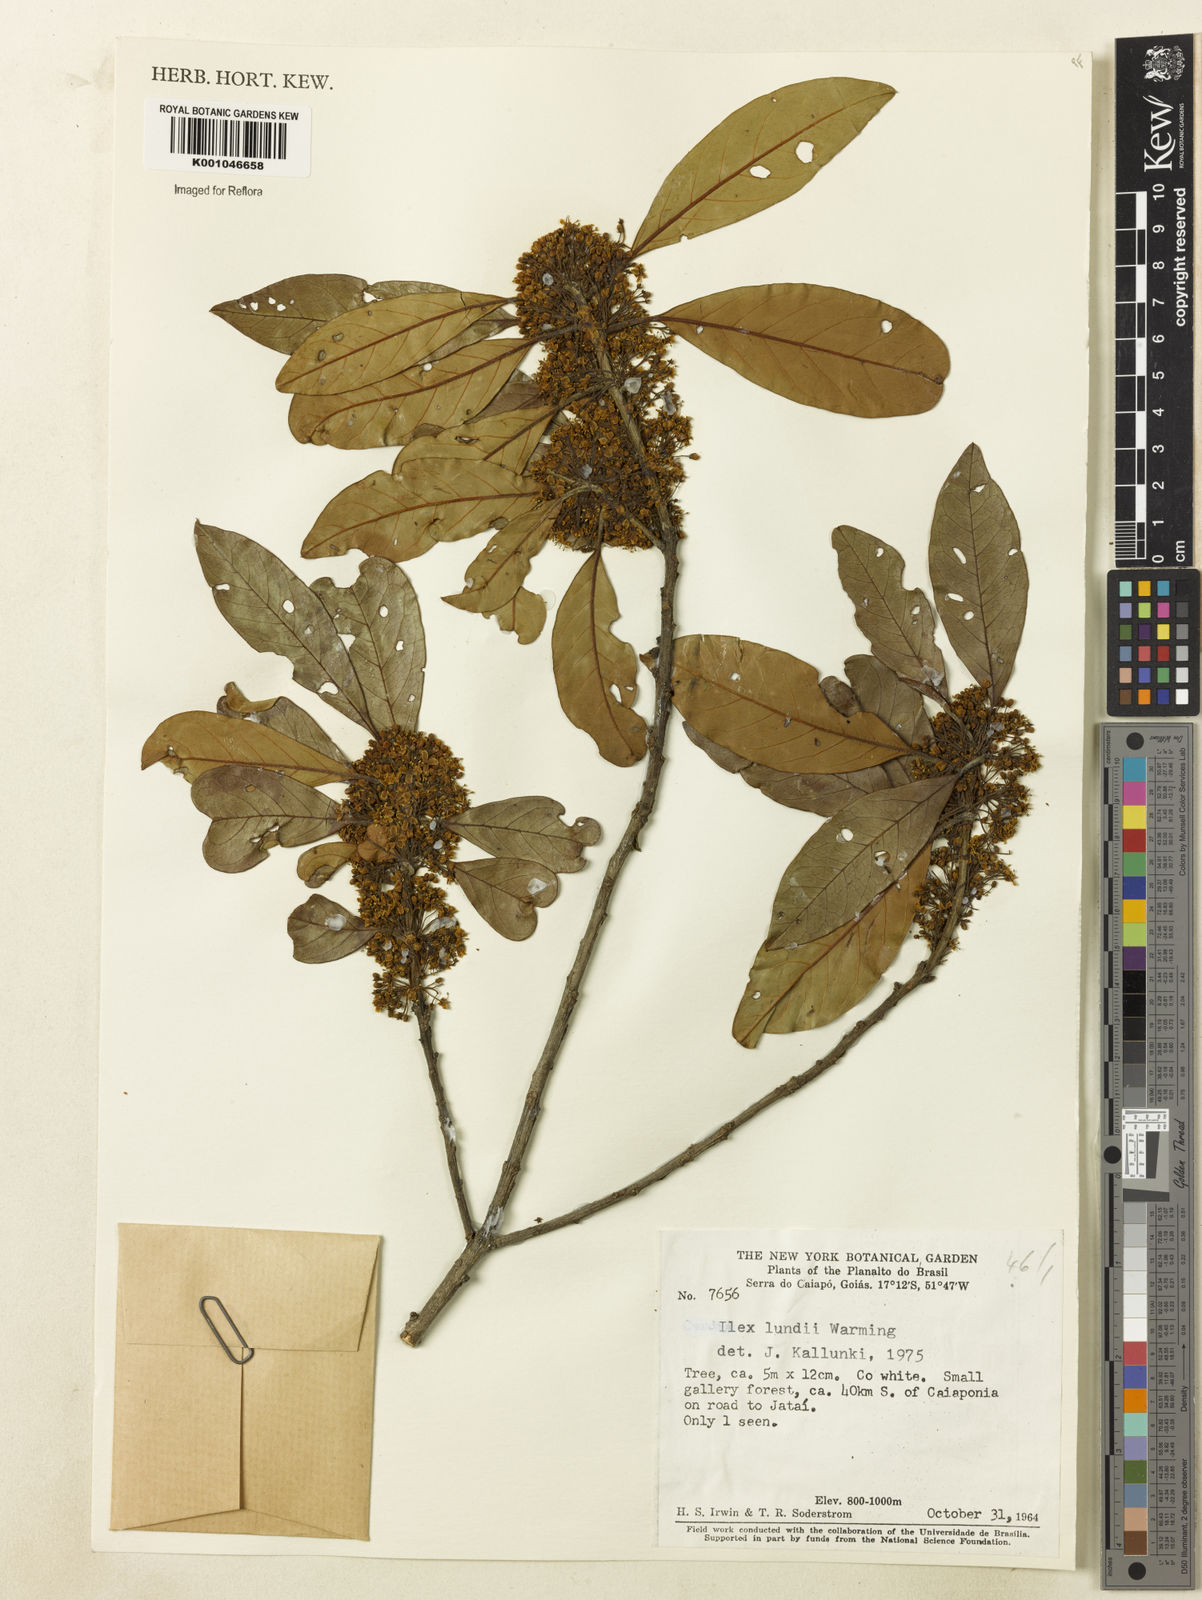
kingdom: Plantae
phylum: Tracheophyta
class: Magnoliopsida
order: Aquifoliales
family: Aquifoliaceae
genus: Ilex
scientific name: Ilex lundii
